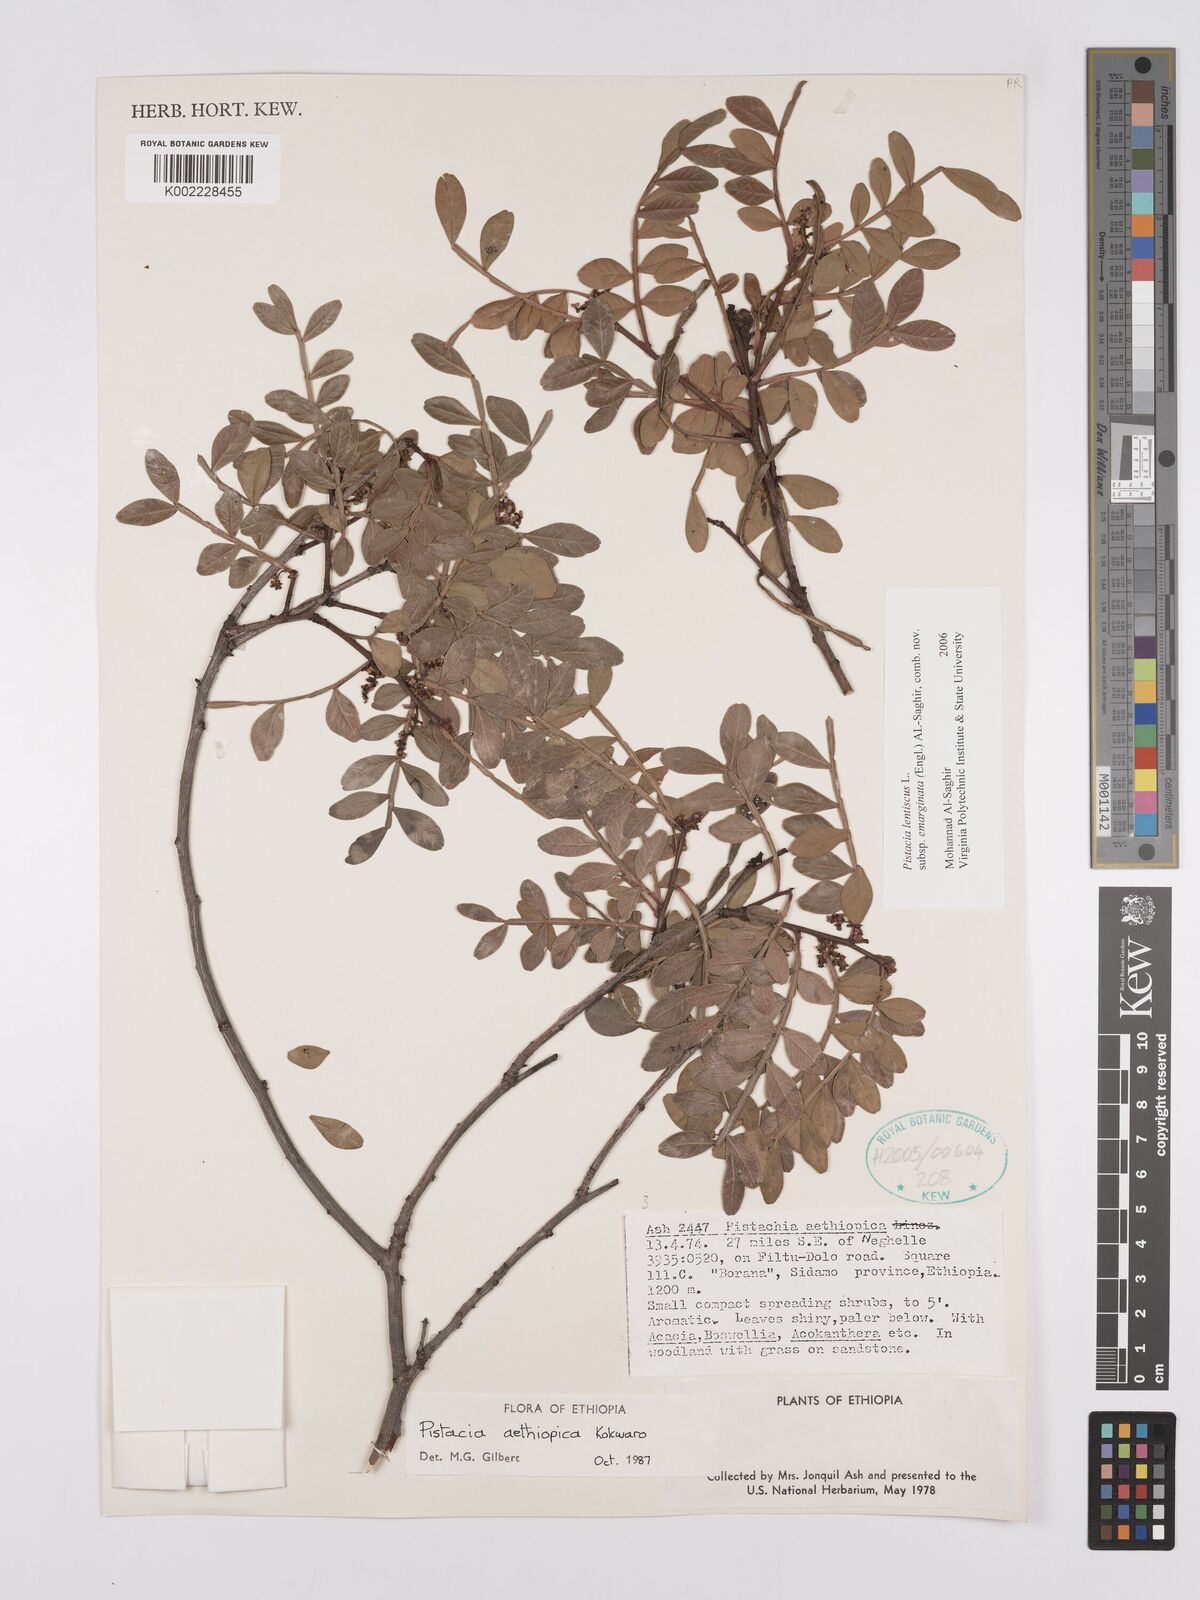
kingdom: Plantae
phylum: Tracheophyta
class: Magnoliopsida
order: Sapindales
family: Anacardiaceae
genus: Pistacia
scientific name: Pistacia lentiscus
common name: Lentisk
